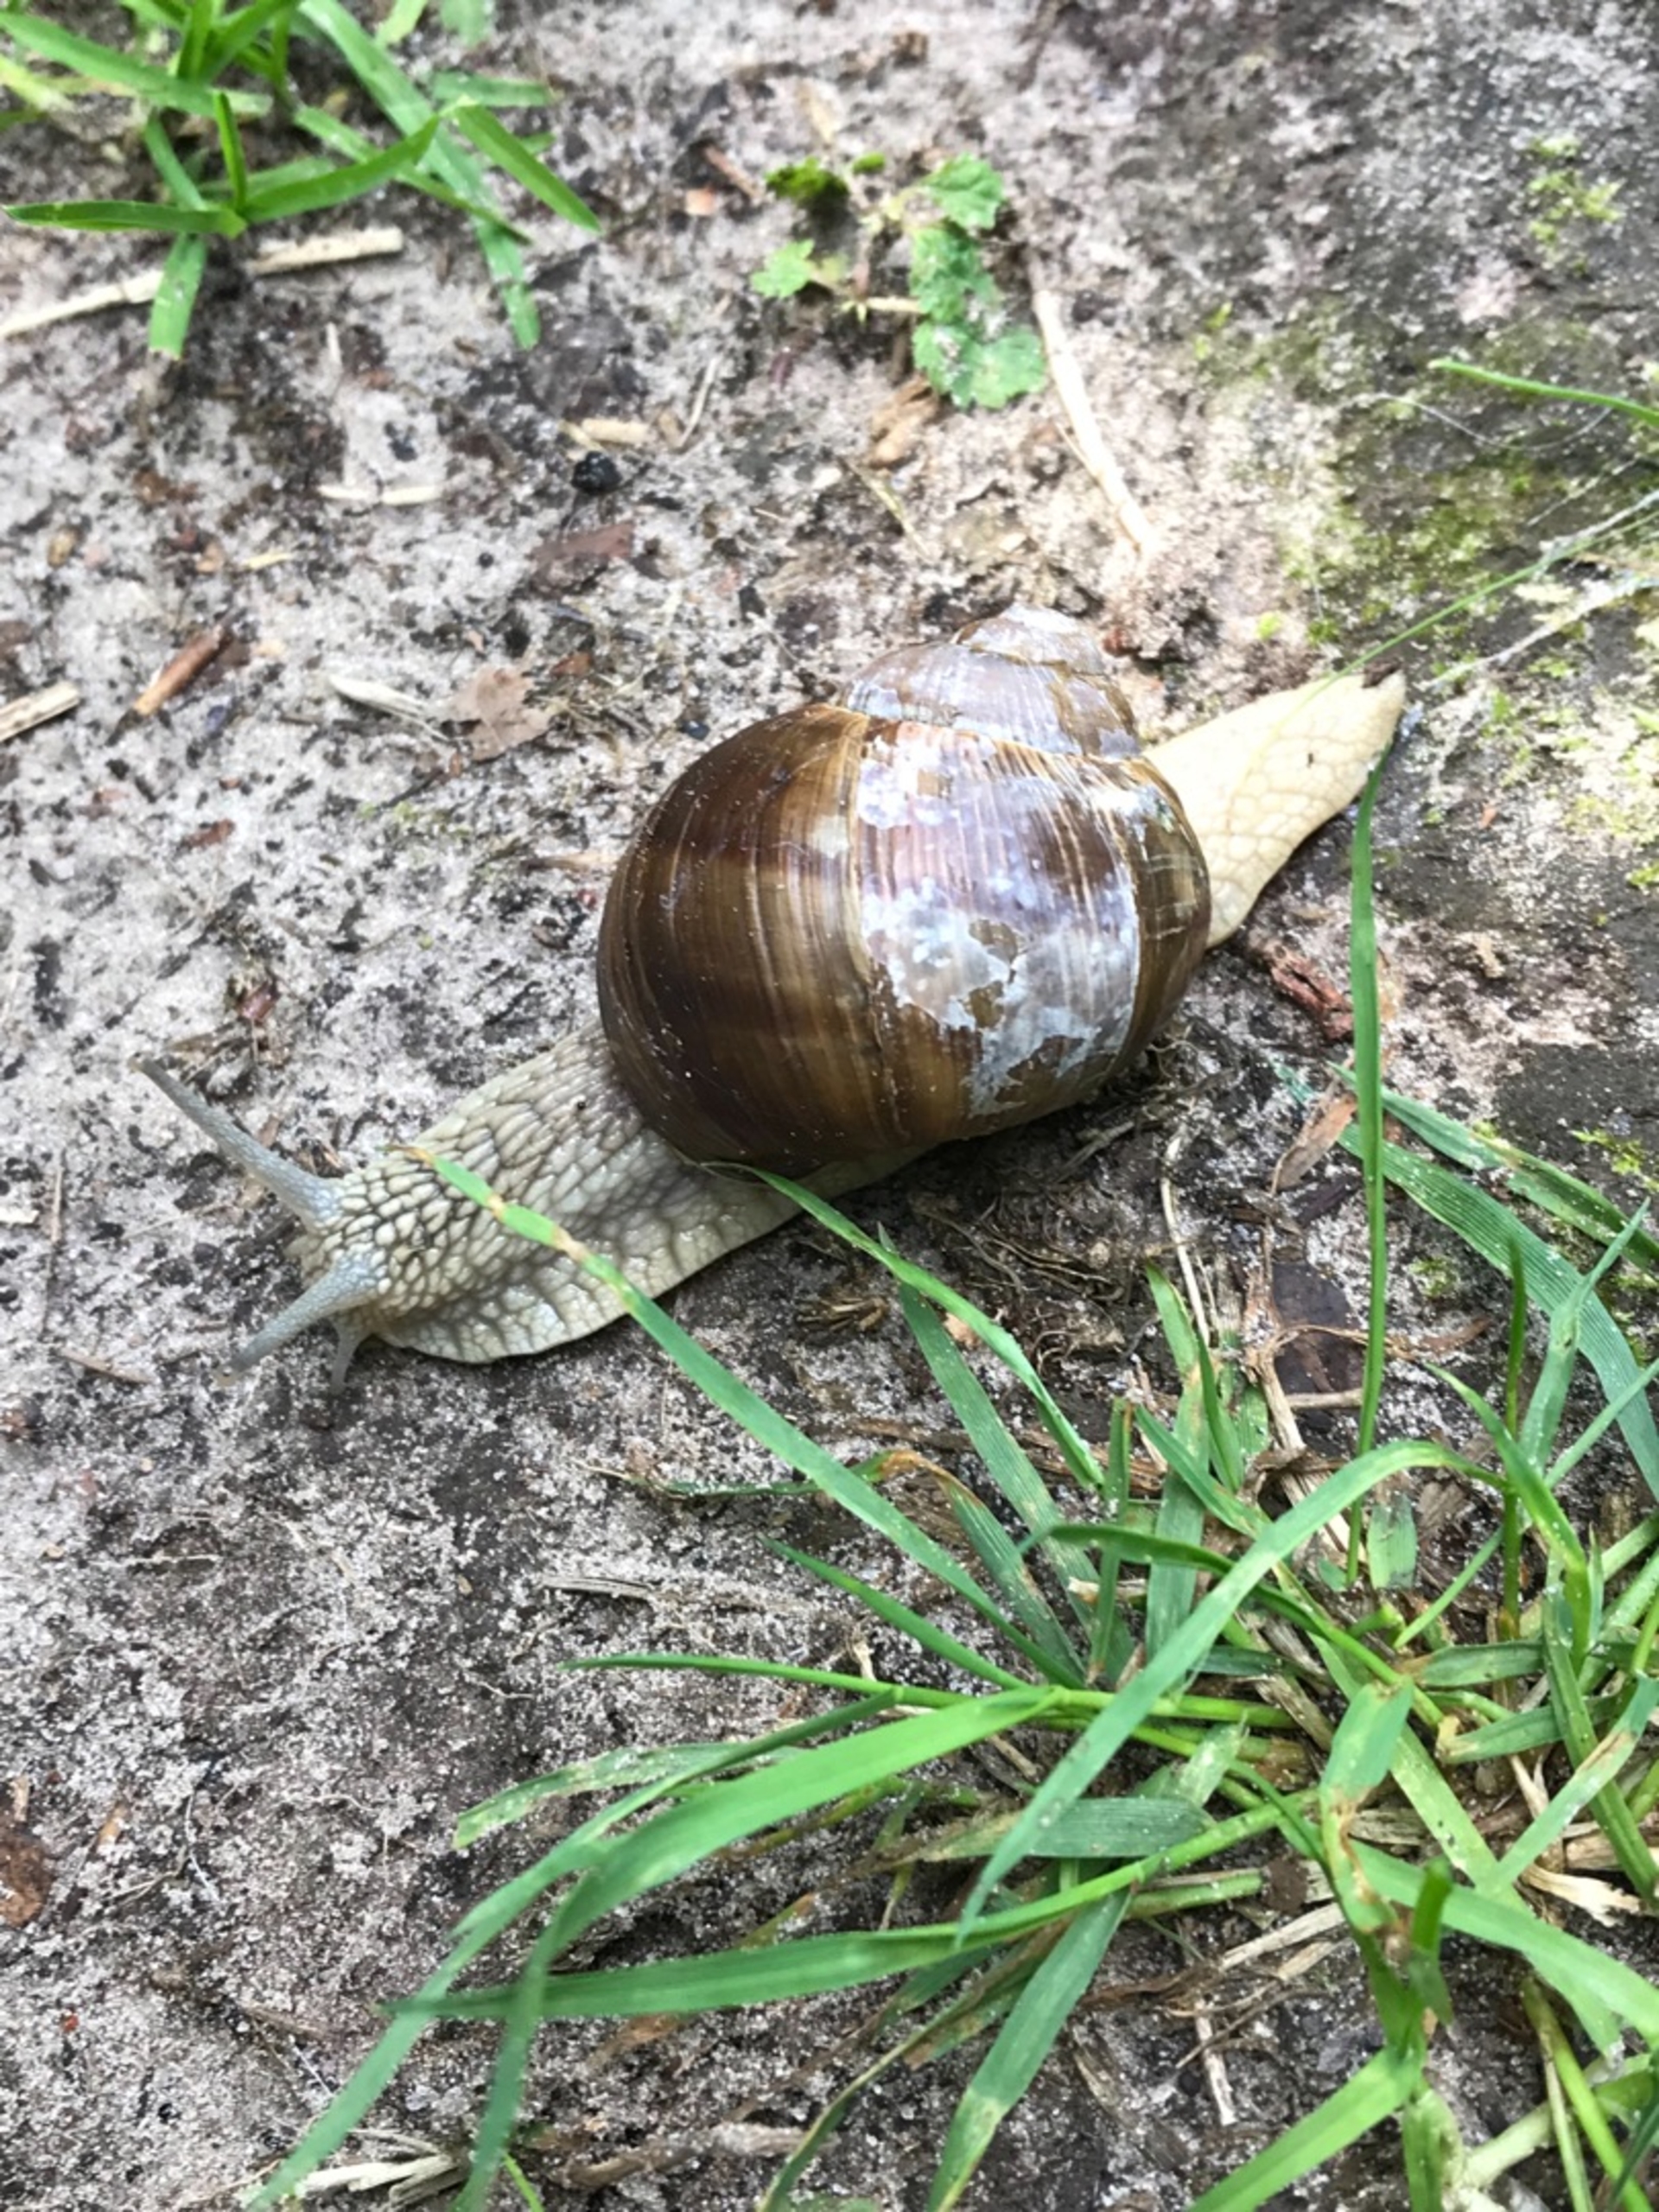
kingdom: Animalia
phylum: Mollusca
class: Gastropoda
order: Stylommatophora
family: Helicidae
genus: Helix
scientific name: Helix pomatia
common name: Vinbjergsnegl
